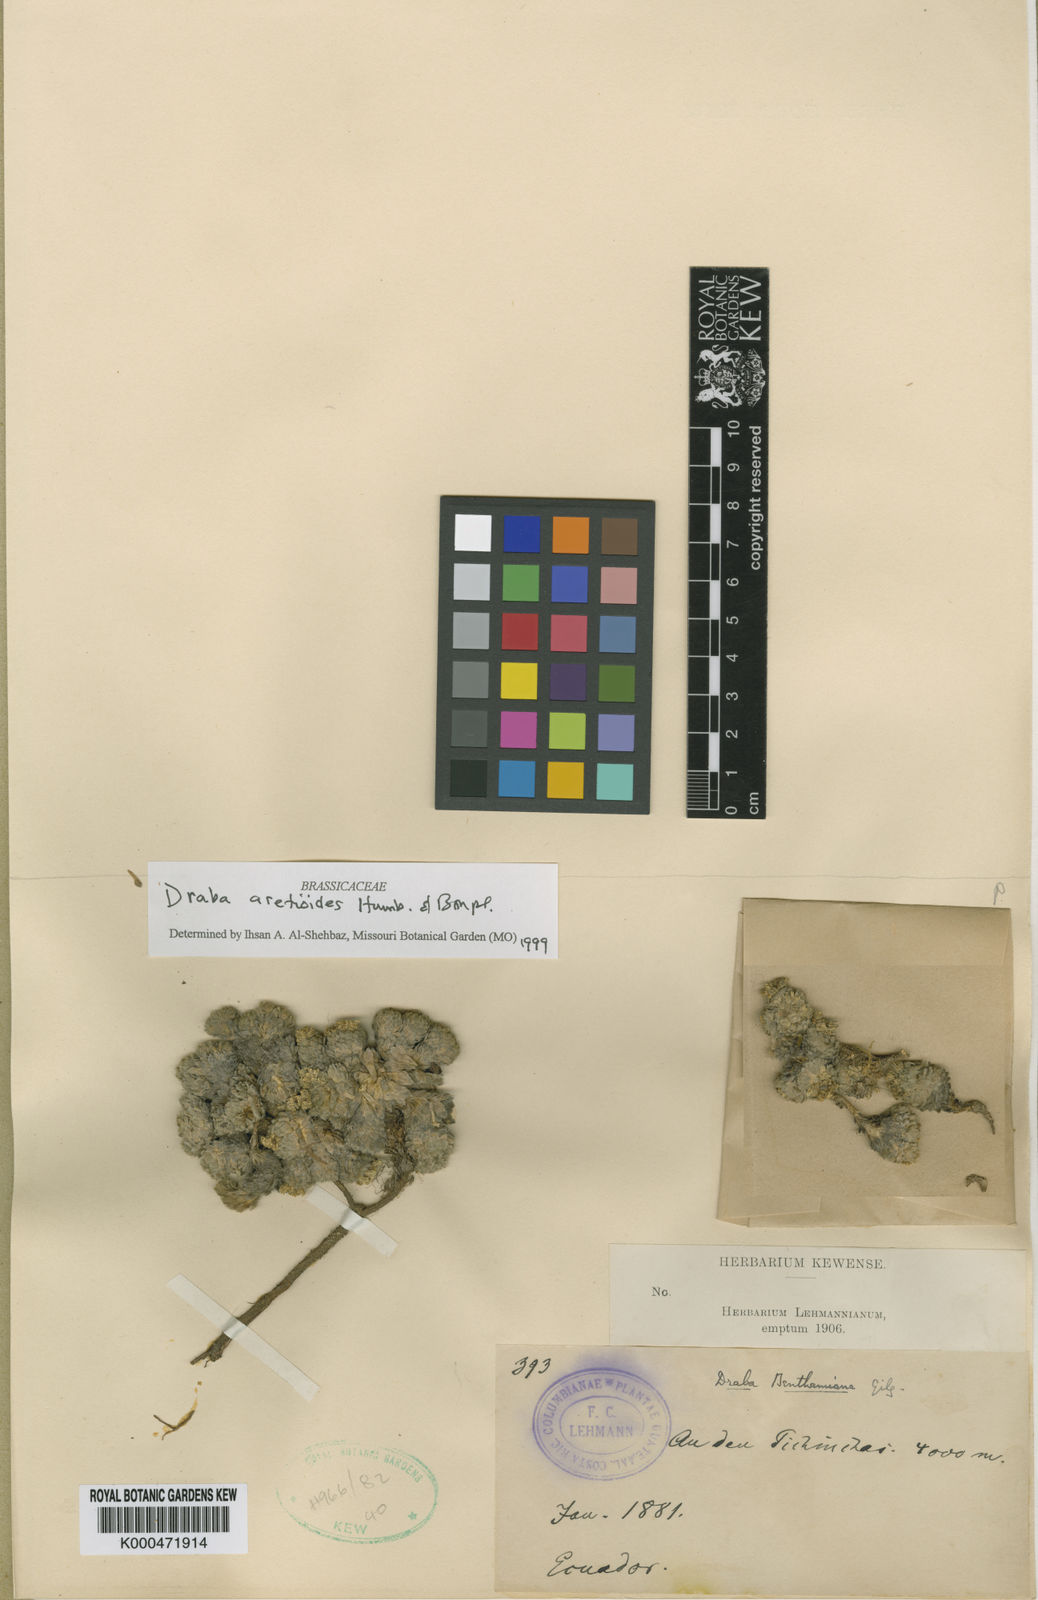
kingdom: Plantae
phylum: Tracheophyta
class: Magnoliopsida
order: Brassicales
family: Brassicaceae
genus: Draba
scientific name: Draba aretioides
